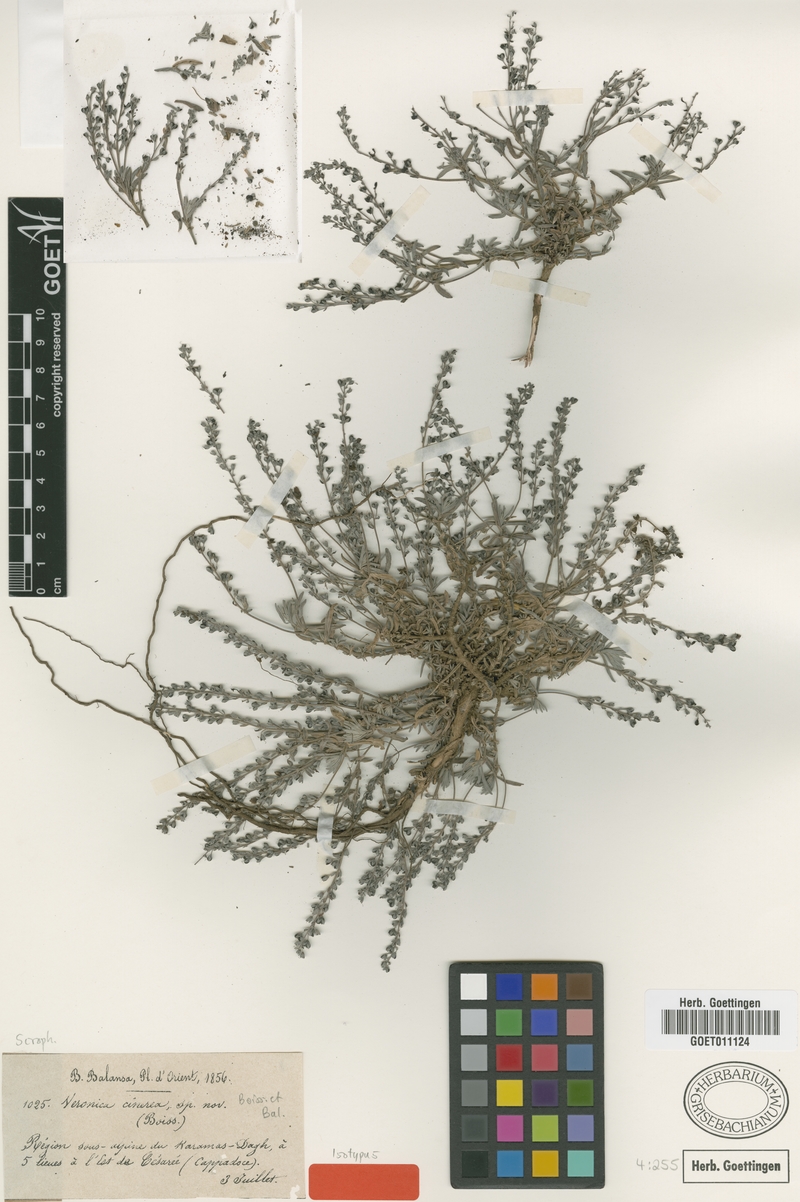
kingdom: Plantae
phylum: Tracheophyta
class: Magnoliopsida
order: Lamiales
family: Plantaginaceae
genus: Veronica
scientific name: Veronica cinerea
